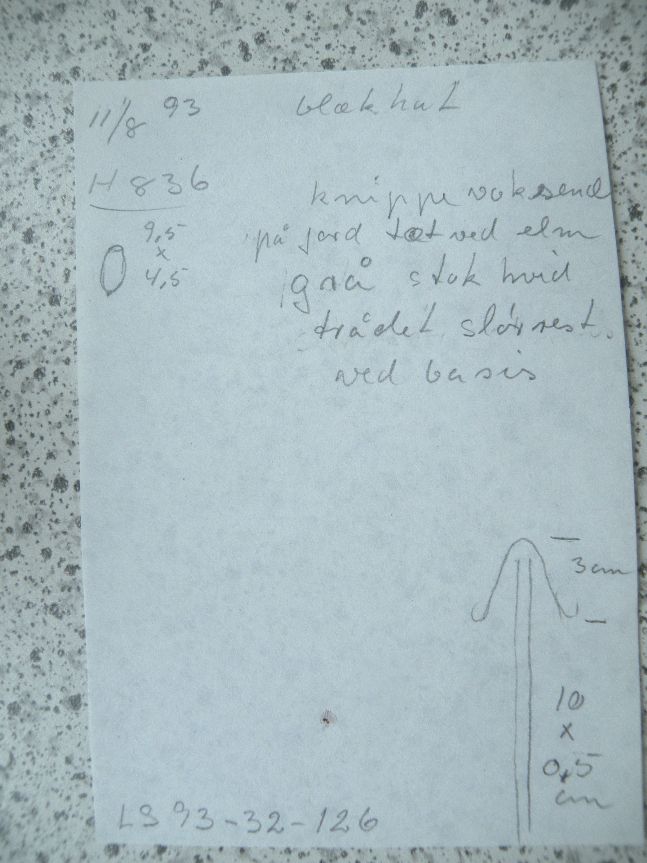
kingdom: Fungi
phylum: Basidiomycota
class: Agaricomycetes
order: Agaricales
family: Psathyrellaceae
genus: Coprinopsis
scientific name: Coprinopsis acuminata
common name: kegle-blækhat
